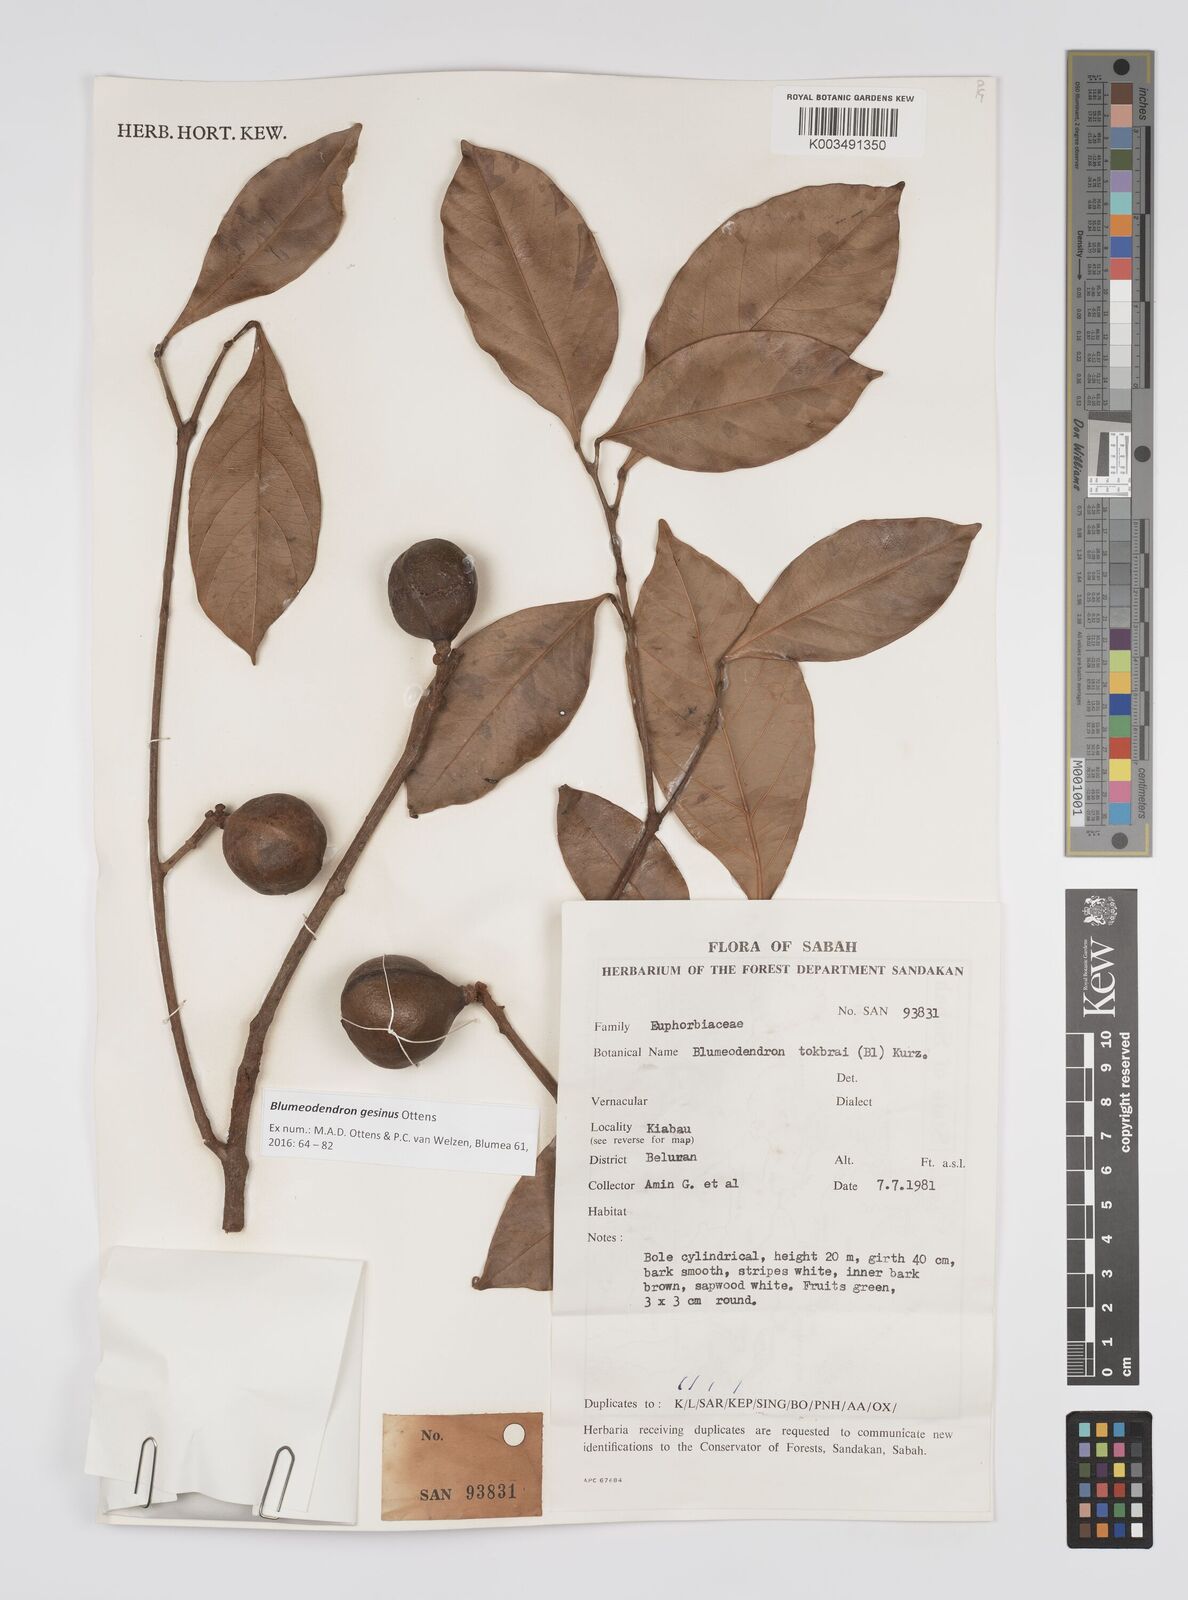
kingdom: Plantae
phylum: Tracheophyta
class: Magnoliopsida
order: Malpighiales
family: Euphorbiaceae
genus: Blumeodendron
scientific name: Blumeodendron gesinus
